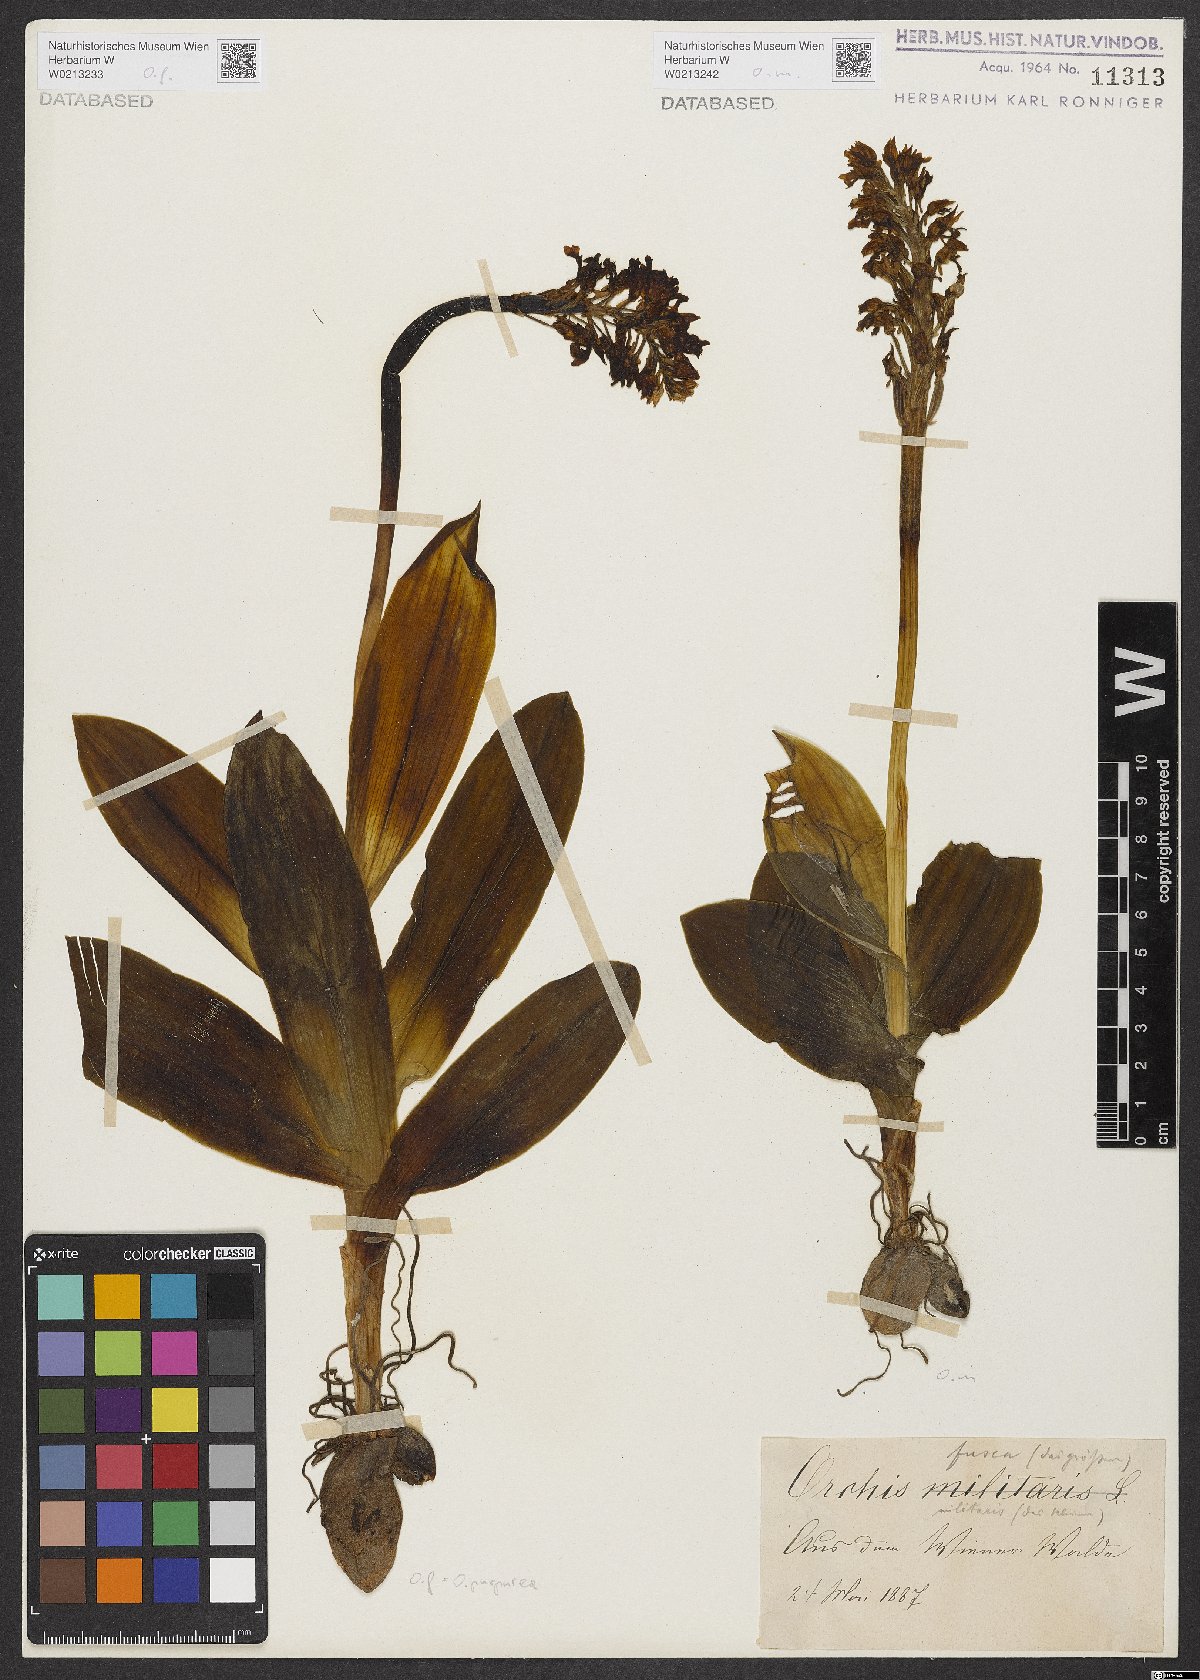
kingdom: Plantae
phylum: Tracheophyta
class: Liliopsida
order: Asparagales
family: Orchidaceae
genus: Orchis
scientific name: Orchis militaris
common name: Military orchid
